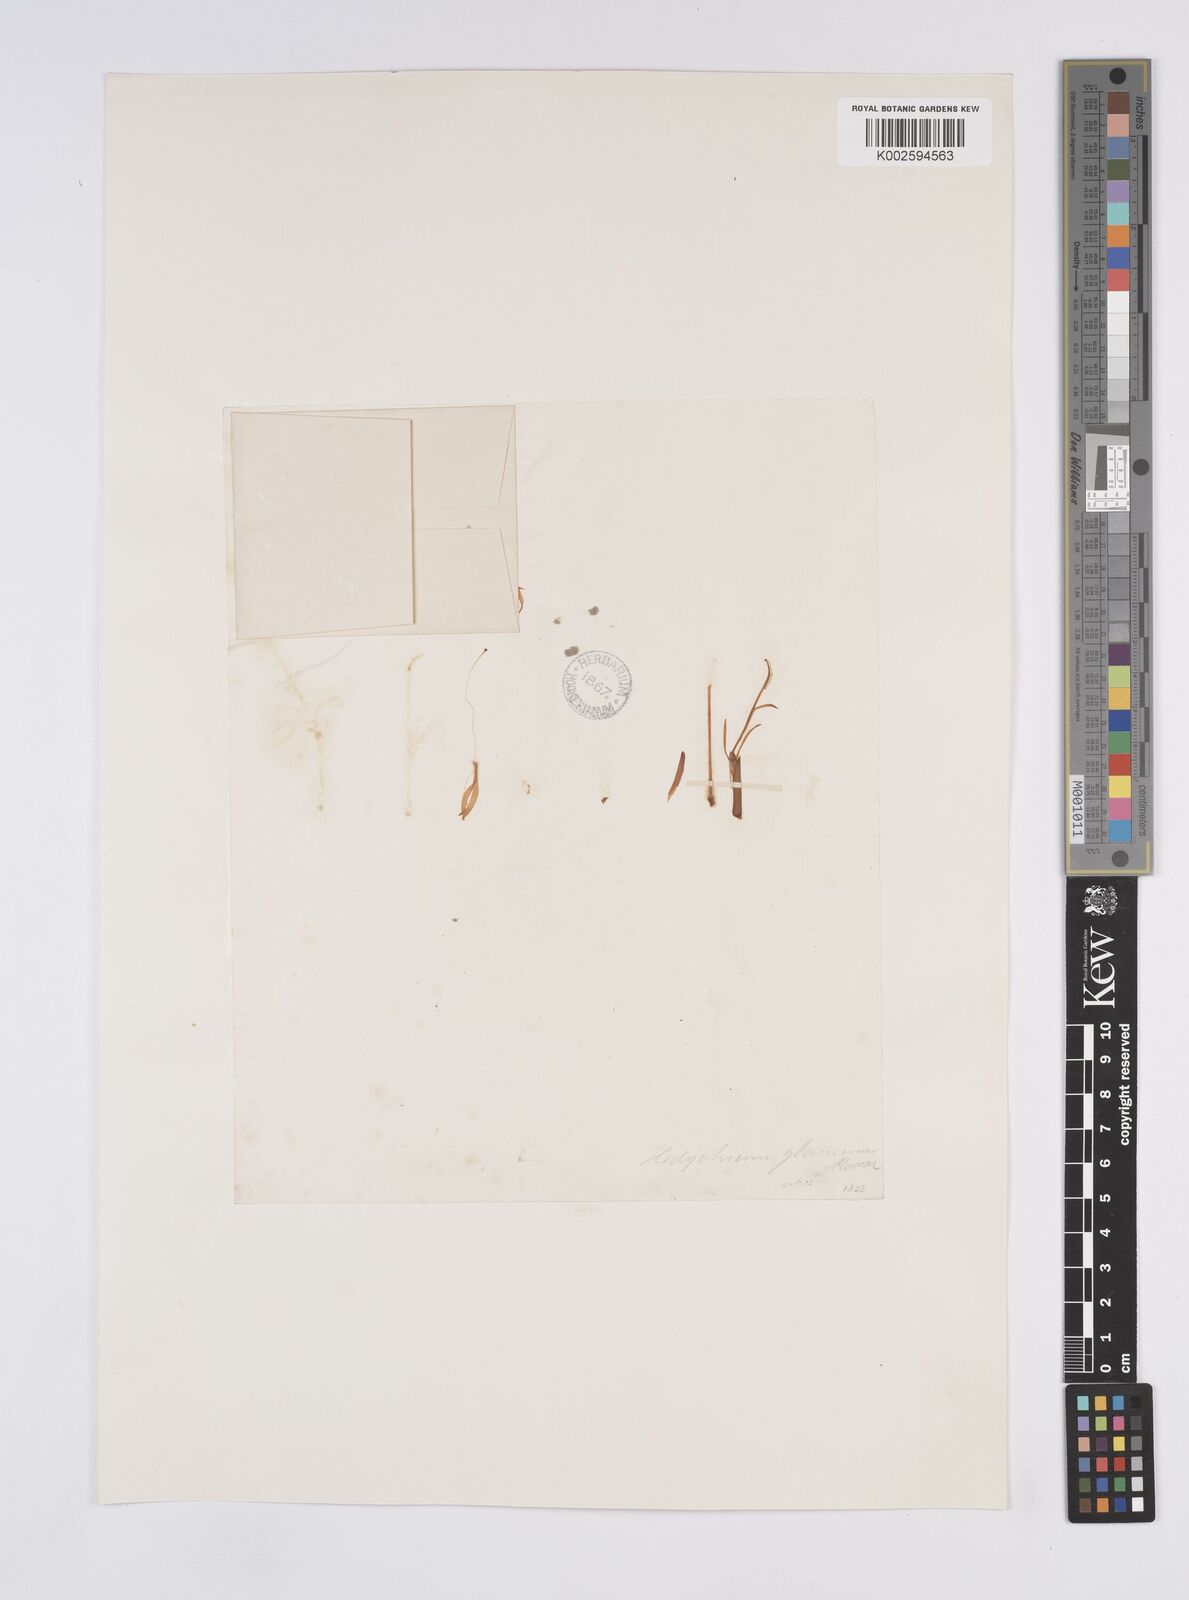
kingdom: Plantae
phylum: Tracheophyta
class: Liliopsida
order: Zingiberales
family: Zingiberaceae
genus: Hedychium
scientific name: Hedychium glaucum
